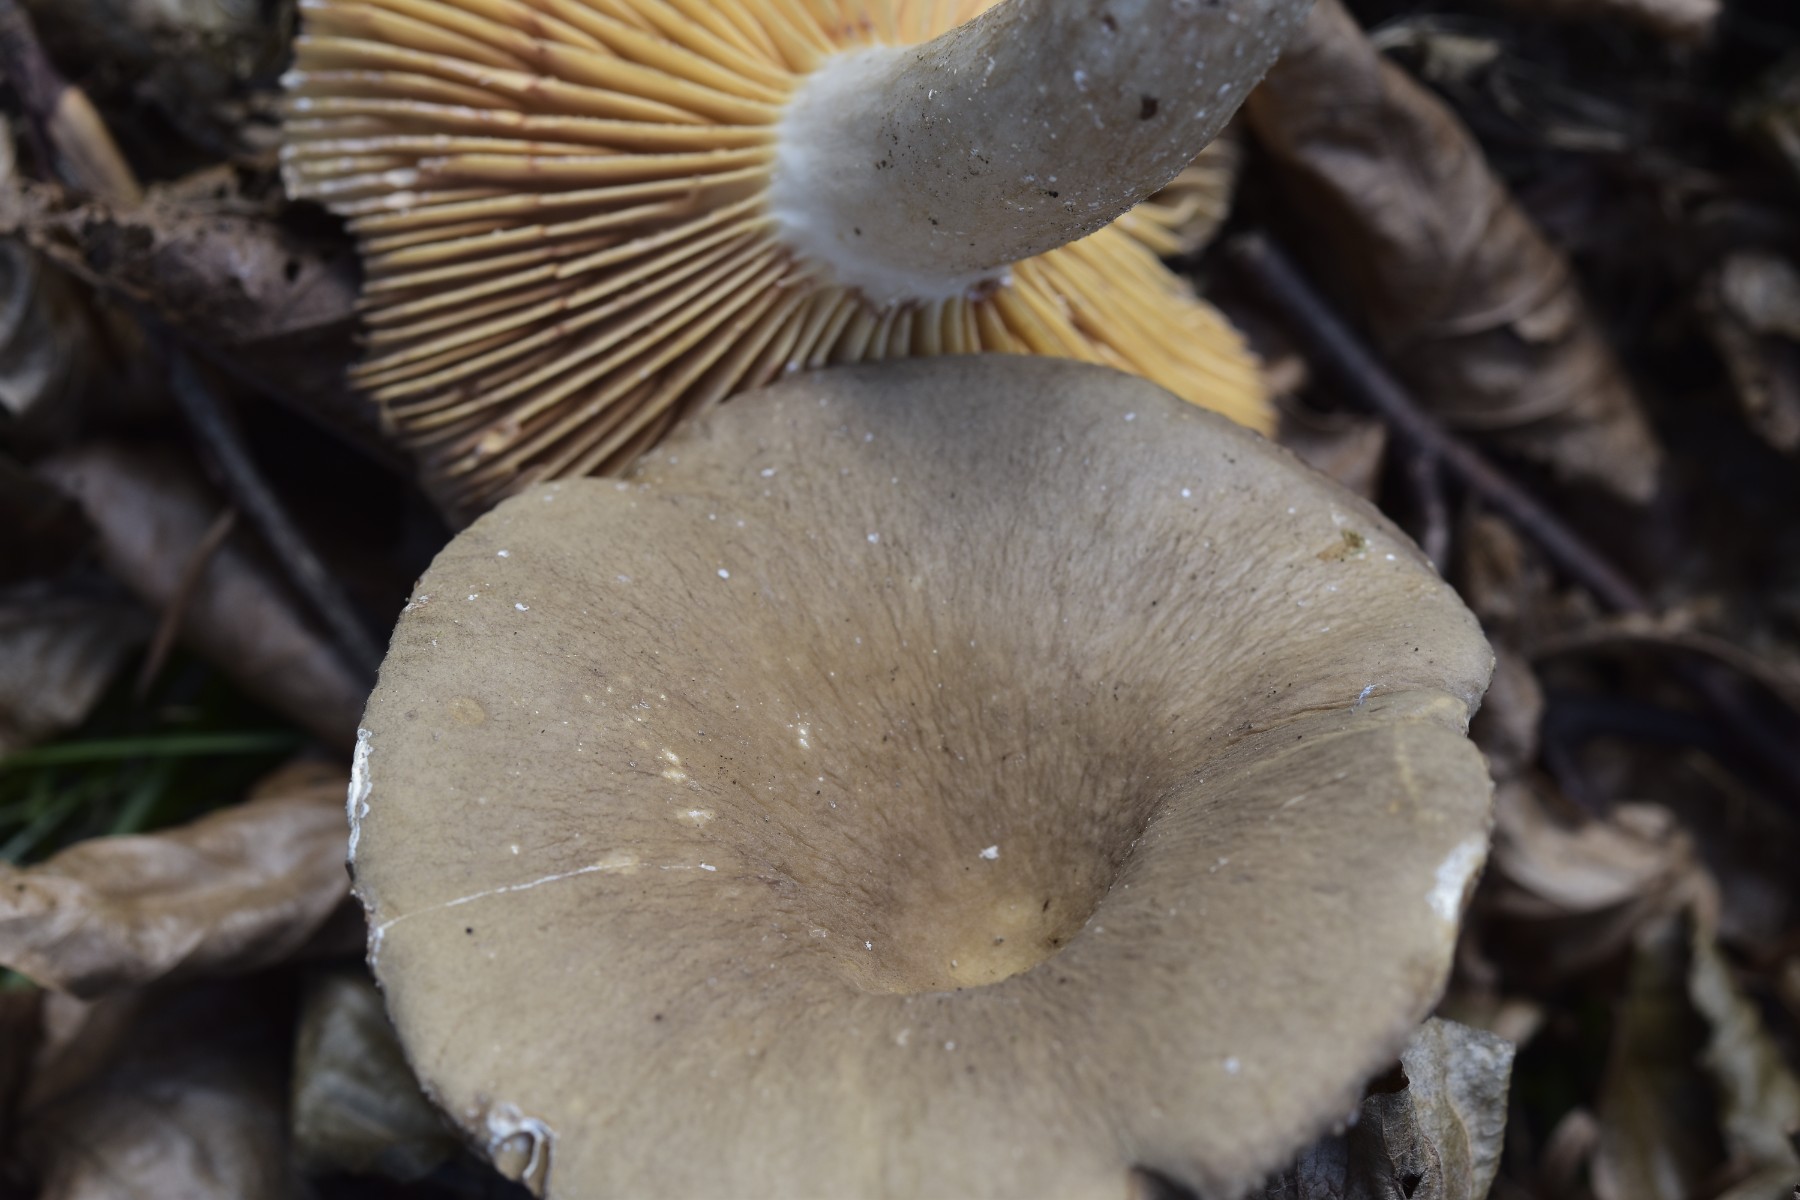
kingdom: Fungi
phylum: Basidiomycota
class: Agaricomycetes
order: Russulales
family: Russulaceae
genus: Lactarius
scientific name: Lactarius pterosporus
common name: vingesporet mælkehat
